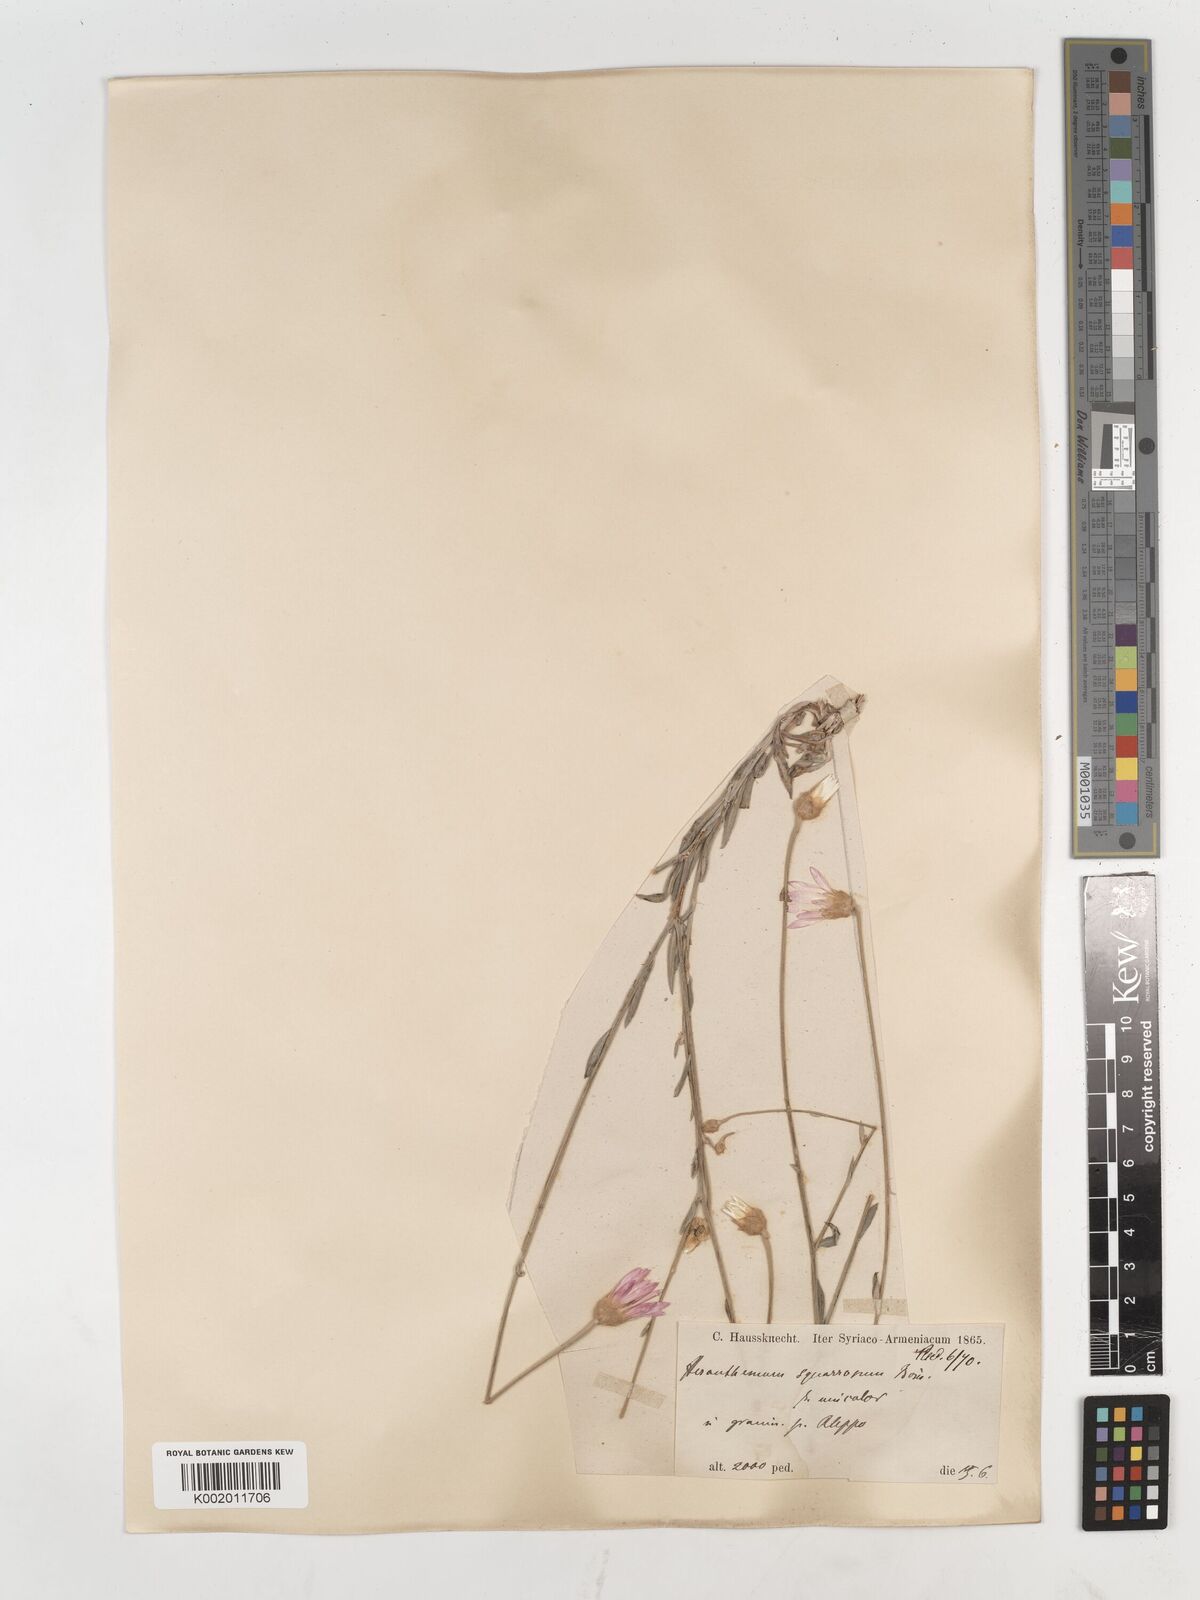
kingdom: Plantae
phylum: Tracheophyta
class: Magnoliopsida
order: Asterales
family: Asteraceae
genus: Xeranthemum
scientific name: Xeranthemum squarrosum
